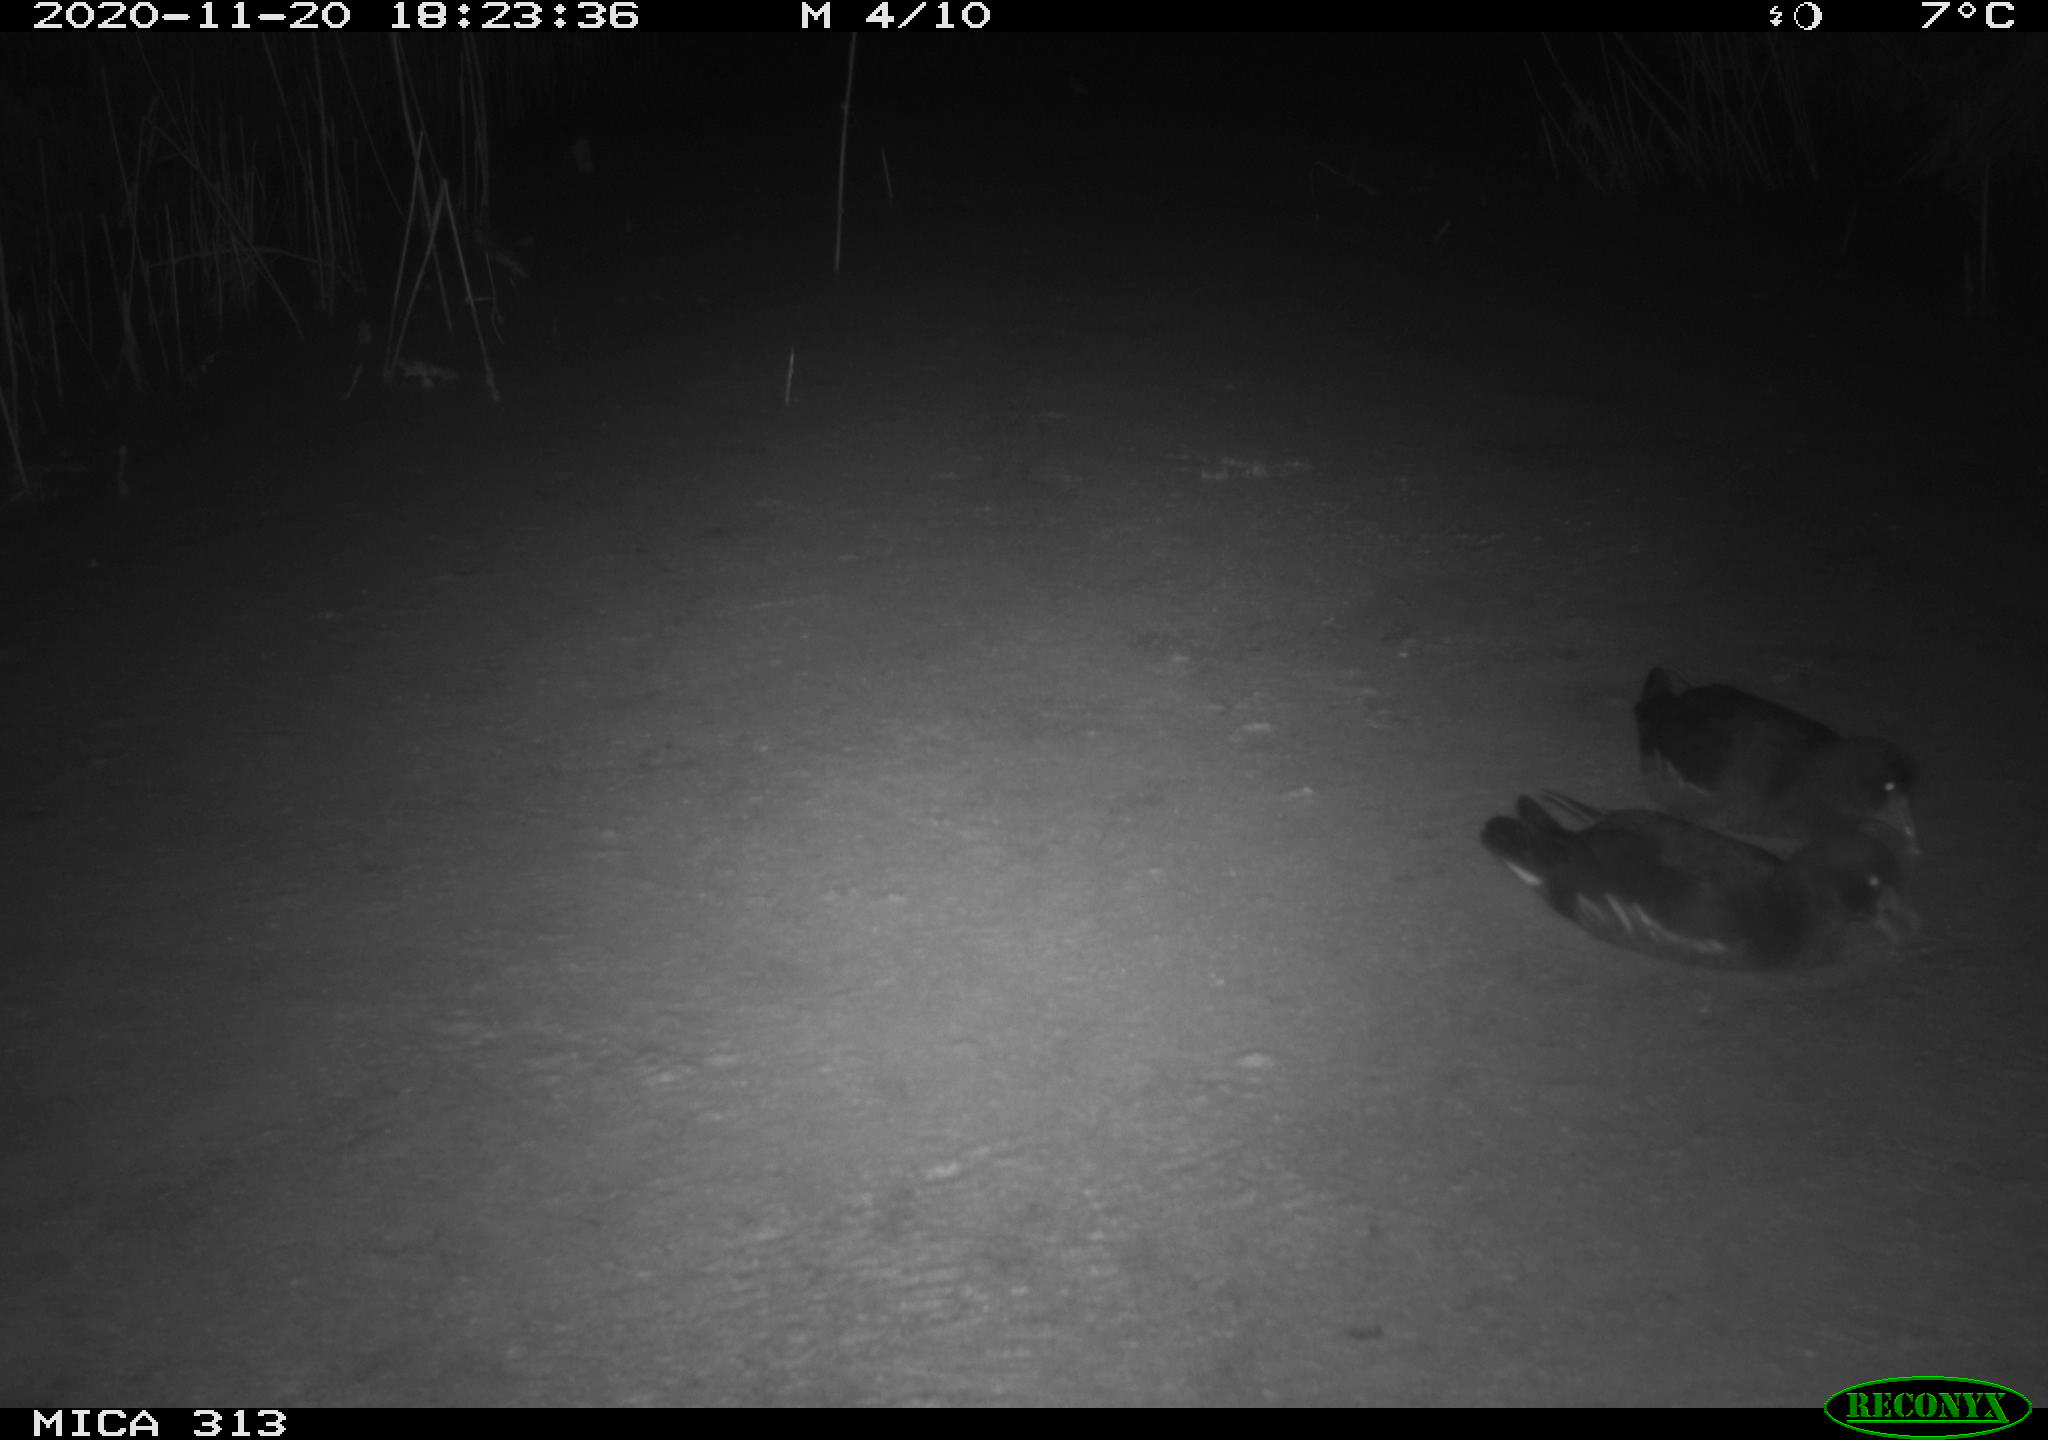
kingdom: Animalia
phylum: Chordata
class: Aves
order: Gruiformes
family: Rallidae
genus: Gallinula
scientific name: Gallinula chloropus
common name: Common moorhen
